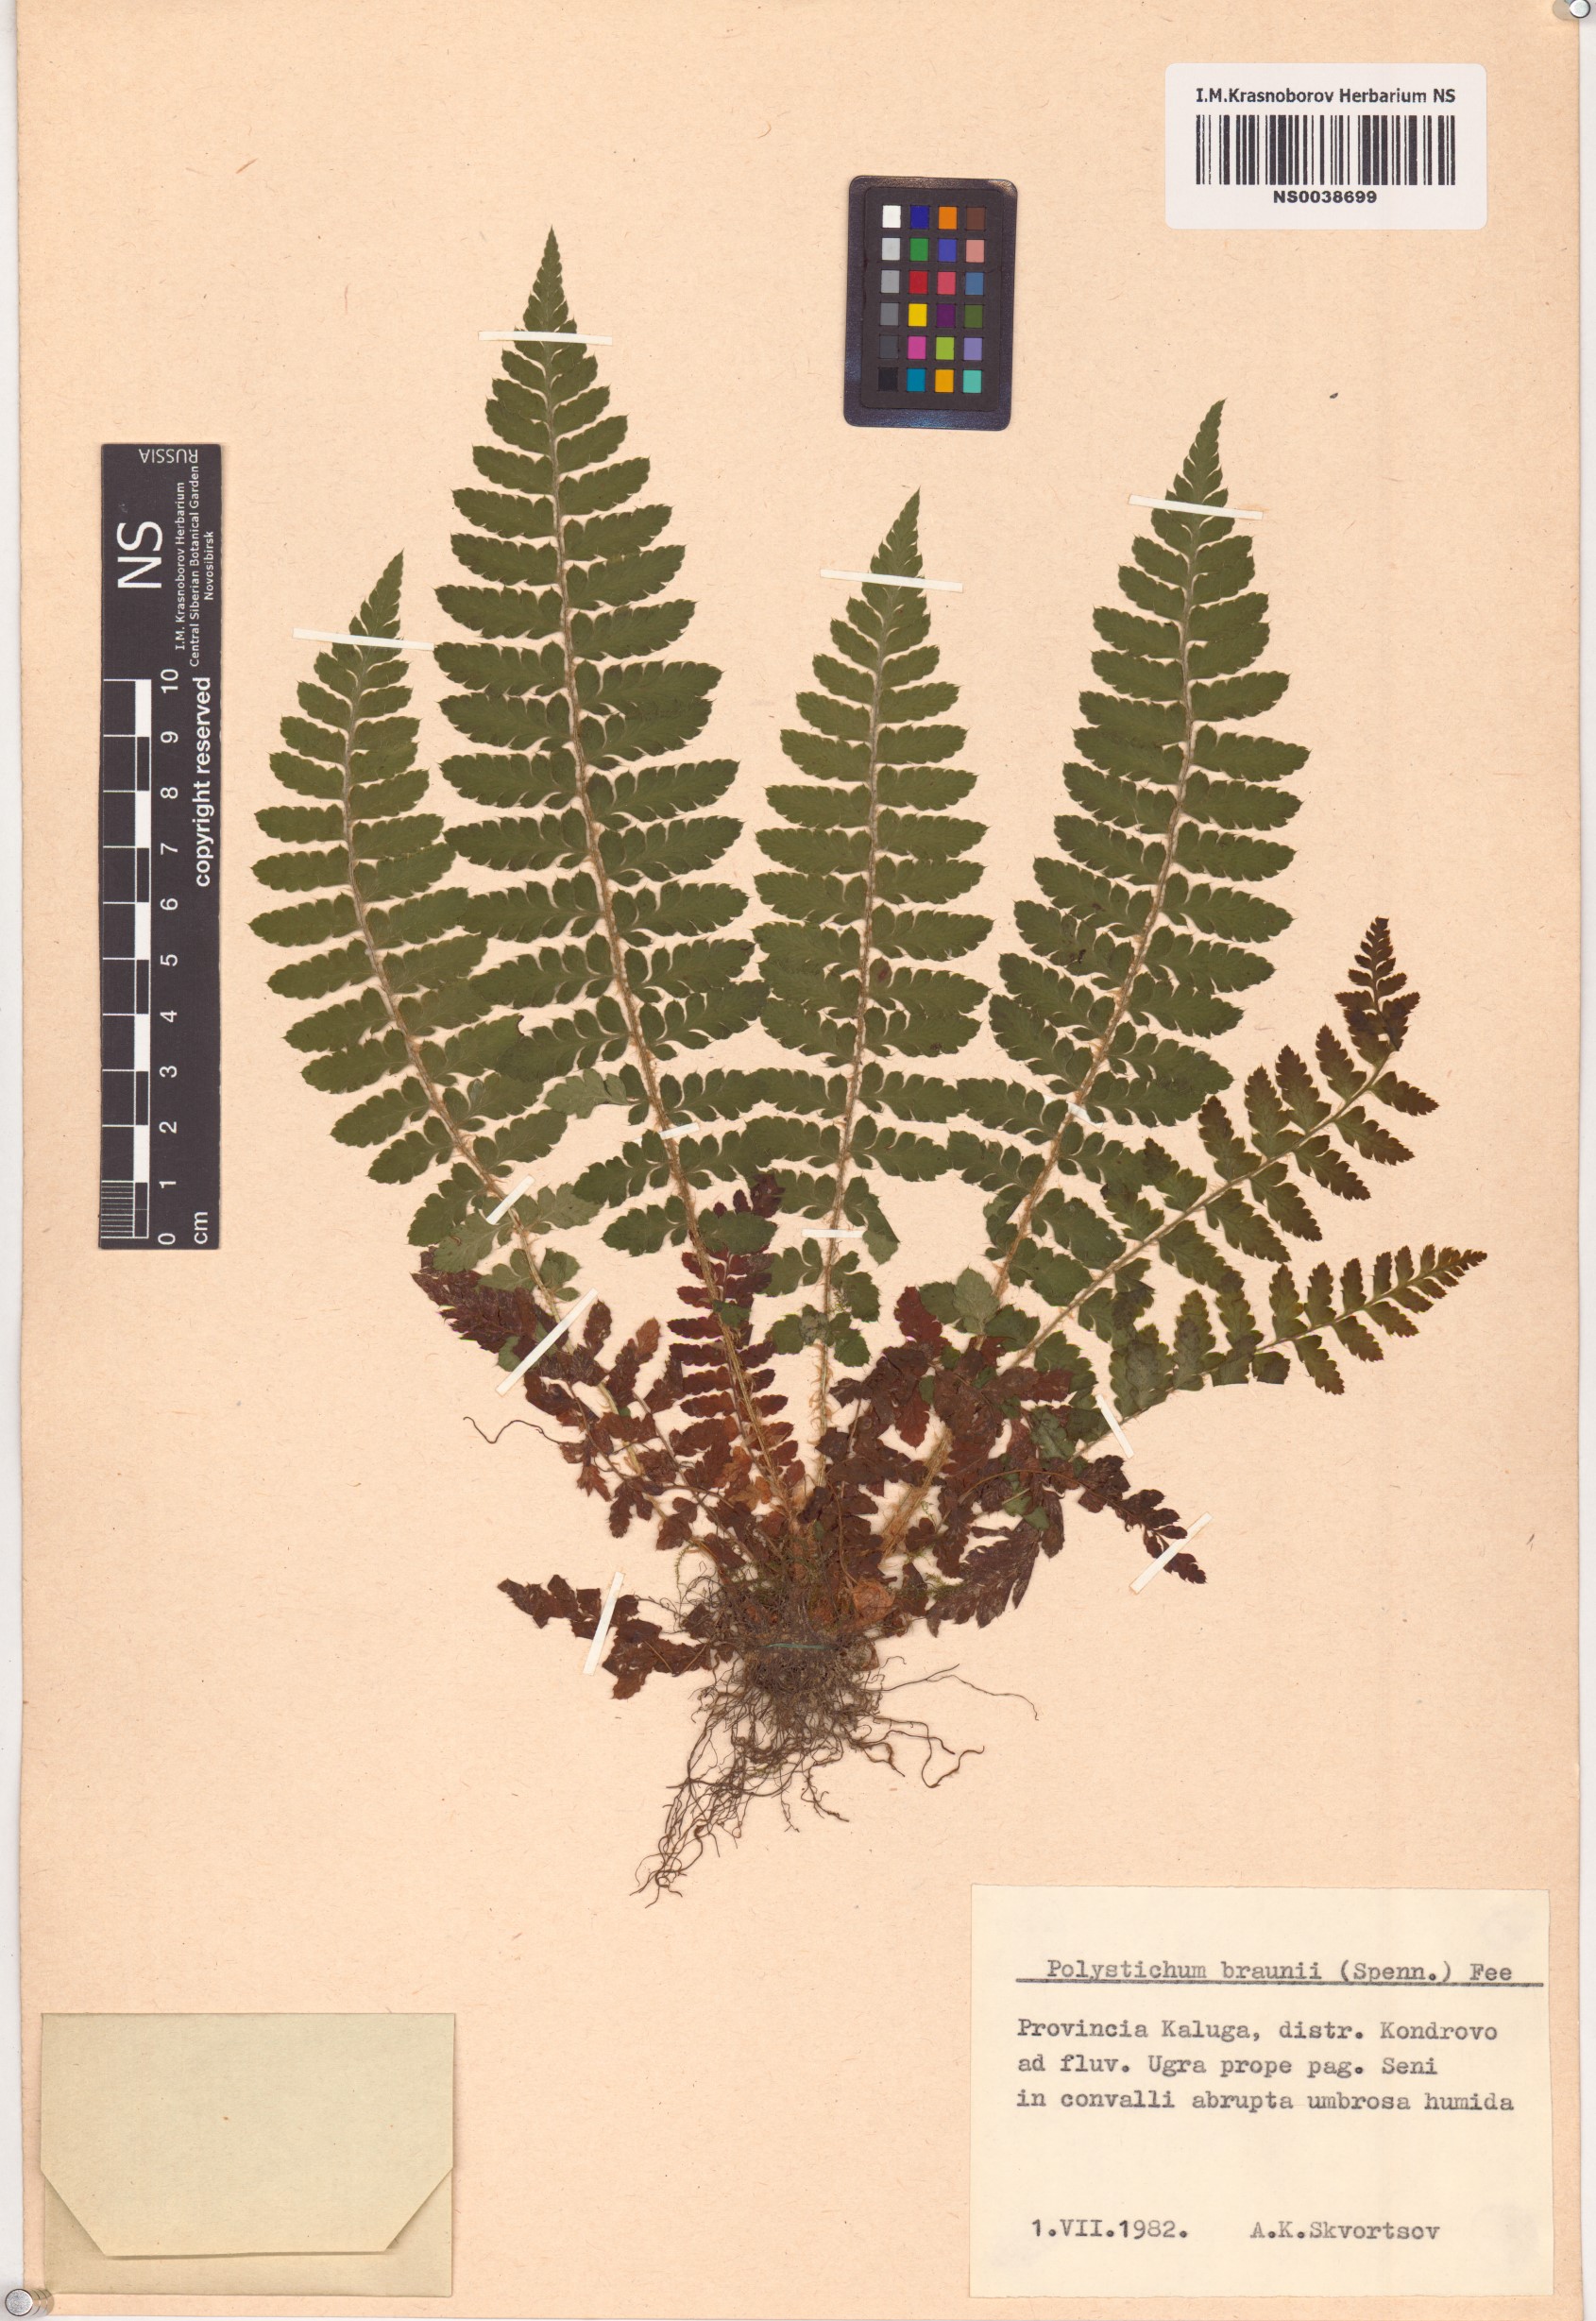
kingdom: Plantae
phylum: Tracheophyta
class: Polypodiopsida
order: Polypodiales
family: Dryopteridaceae
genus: Polystichum
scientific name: Polystichum braunii
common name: Braun's holly fern
